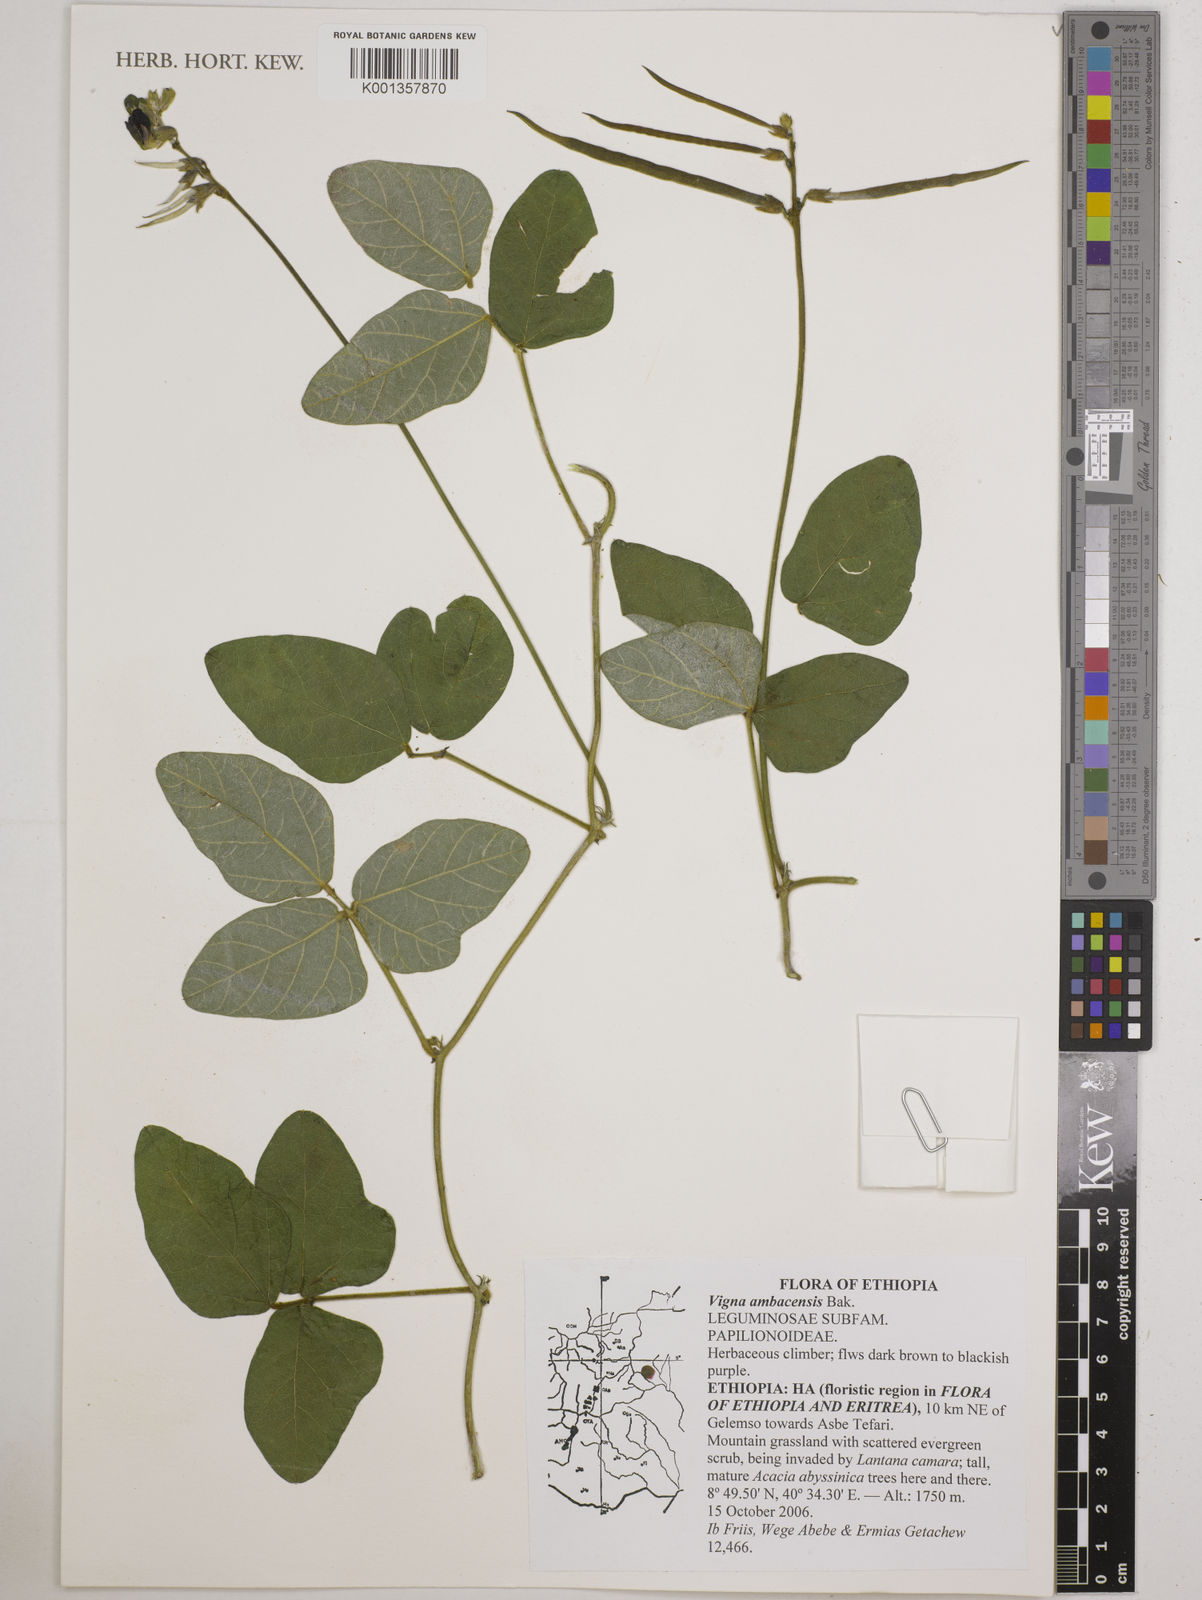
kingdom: Plantae
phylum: Tracheophyta
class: Magnoliopsida
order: Fabales
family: Fabaceae
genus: Vigna
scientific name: Vigna ambacensis
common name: Tsarkiyan zomo
